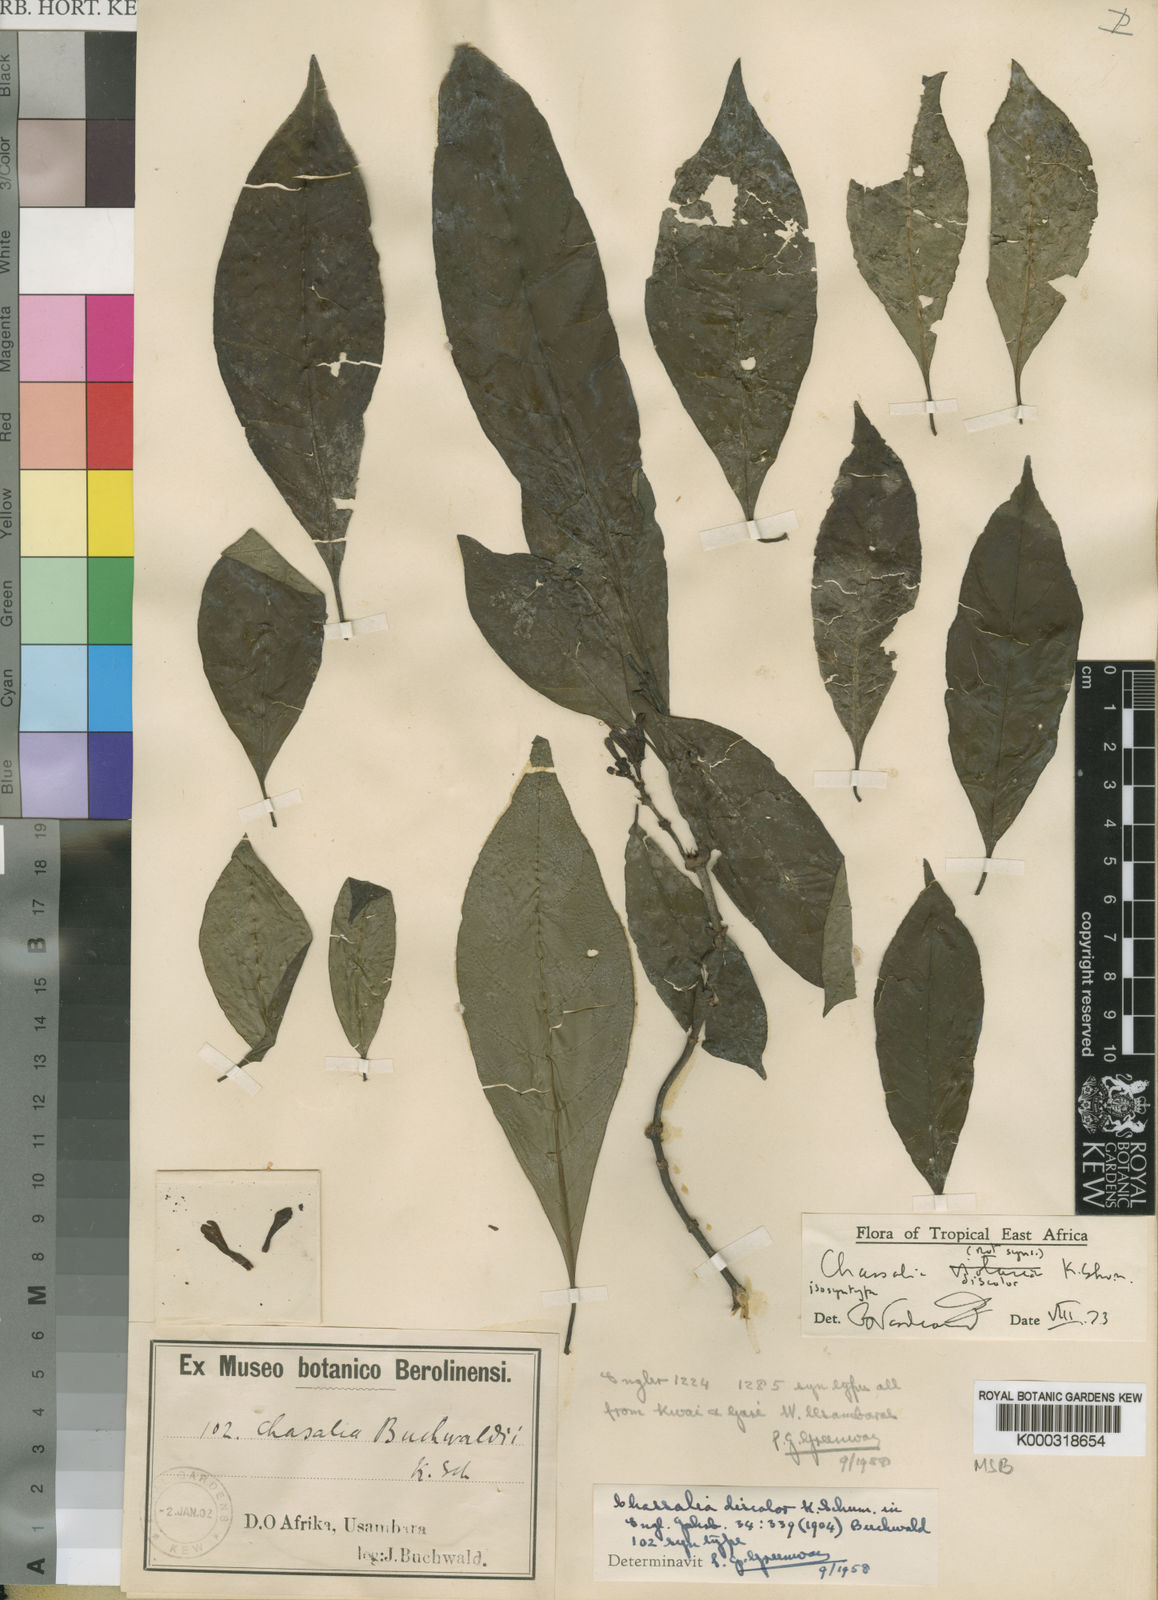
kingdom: Plantae
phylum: Tracheophyta
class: Magnoliopsida
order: Gentianales
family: Rubiaceae
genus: Chassalia
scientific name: Chassalia discolor
